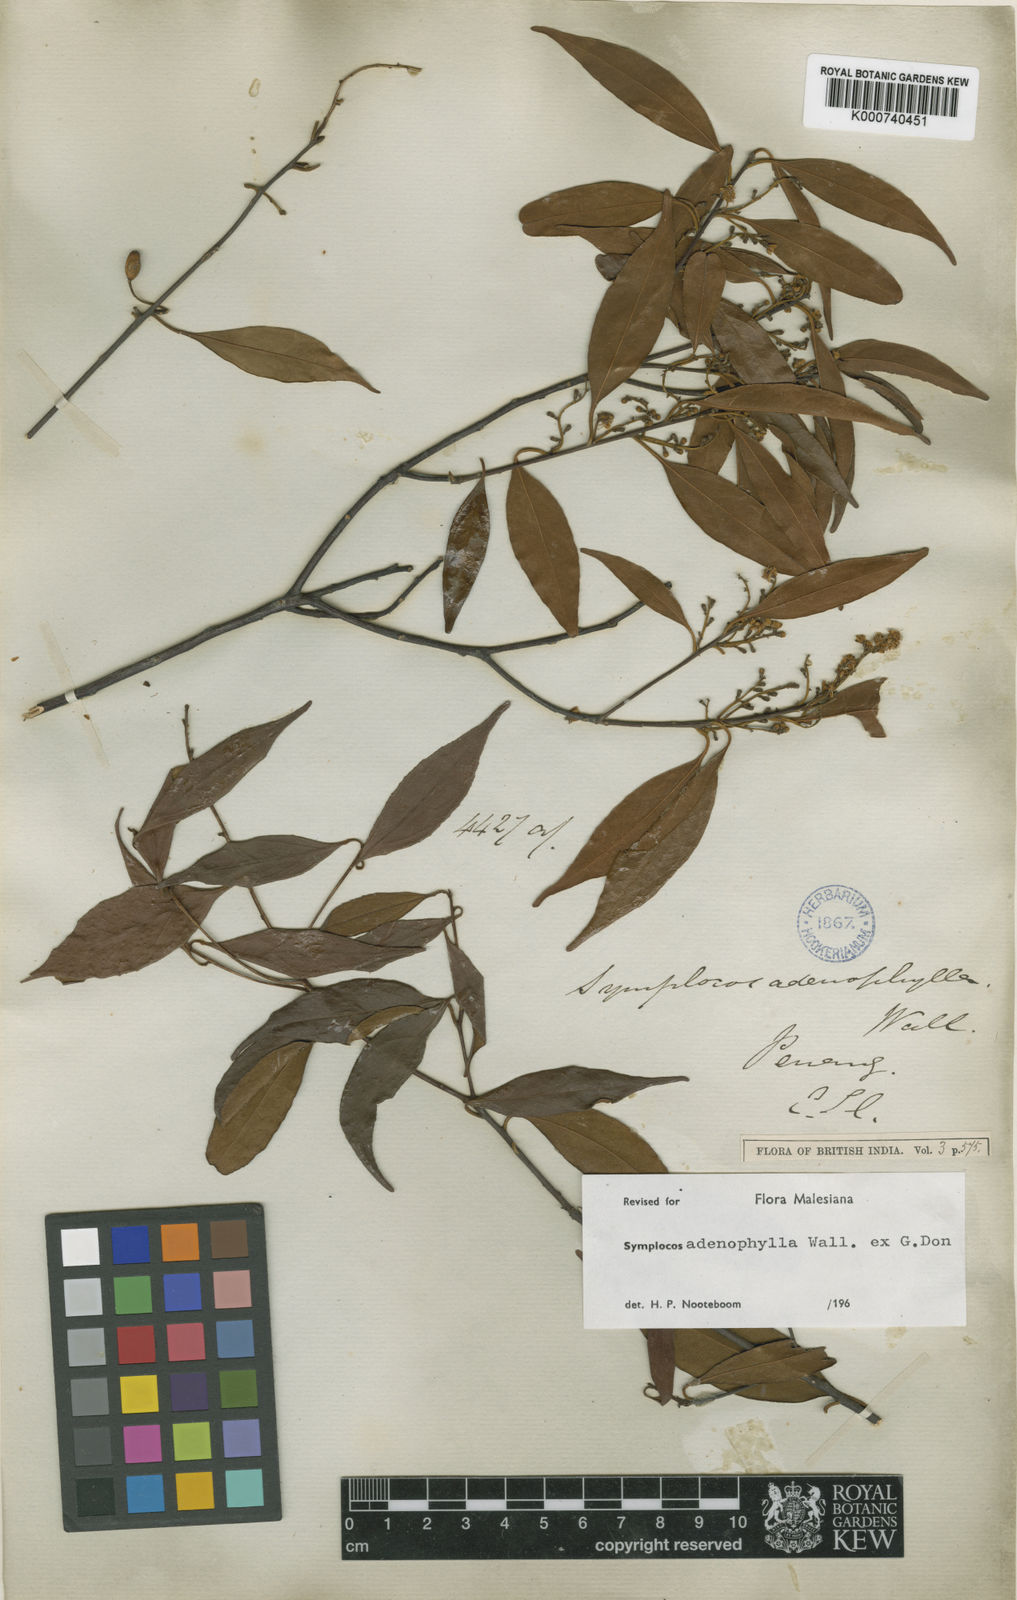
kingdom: Plantae
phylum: Tracheophyta
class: Magnoliopsida
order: Ericales
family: Symplocaceae
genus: Symplocos
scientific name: Symplocos
